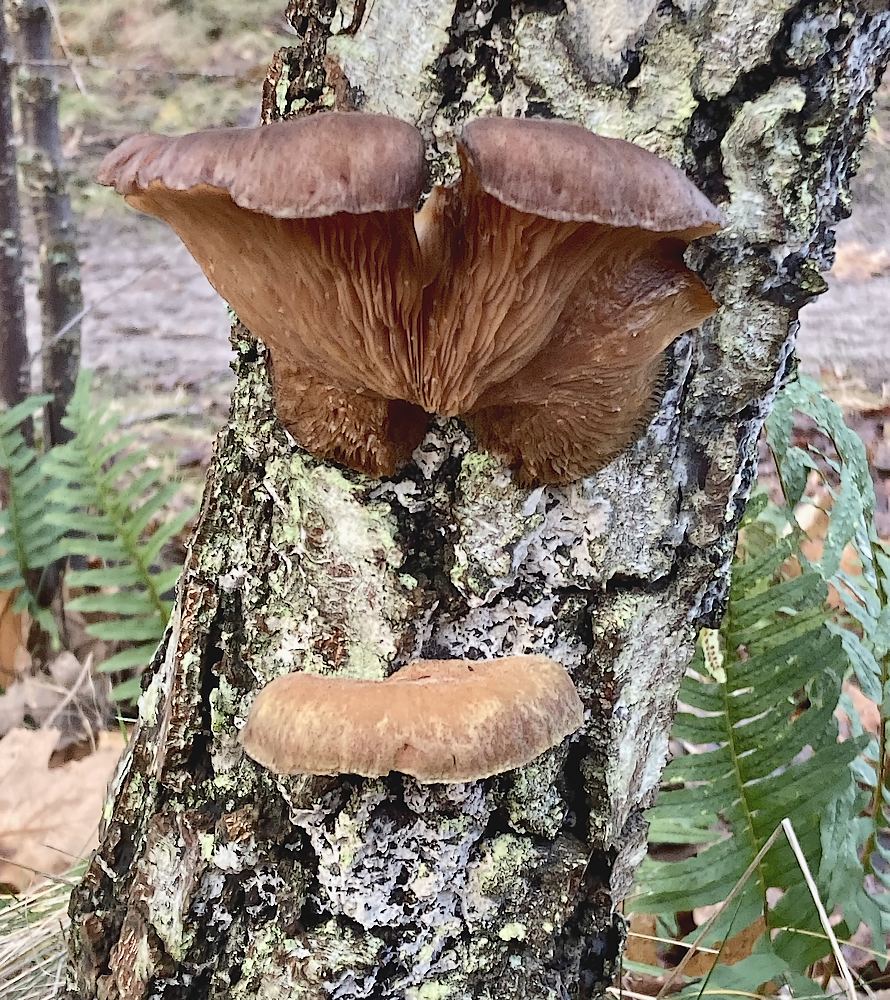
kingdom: Fungi
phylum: Basidiomycota
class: Agaricomycetes
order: Agaricales
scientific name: Agaricales
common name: champignonordenen
